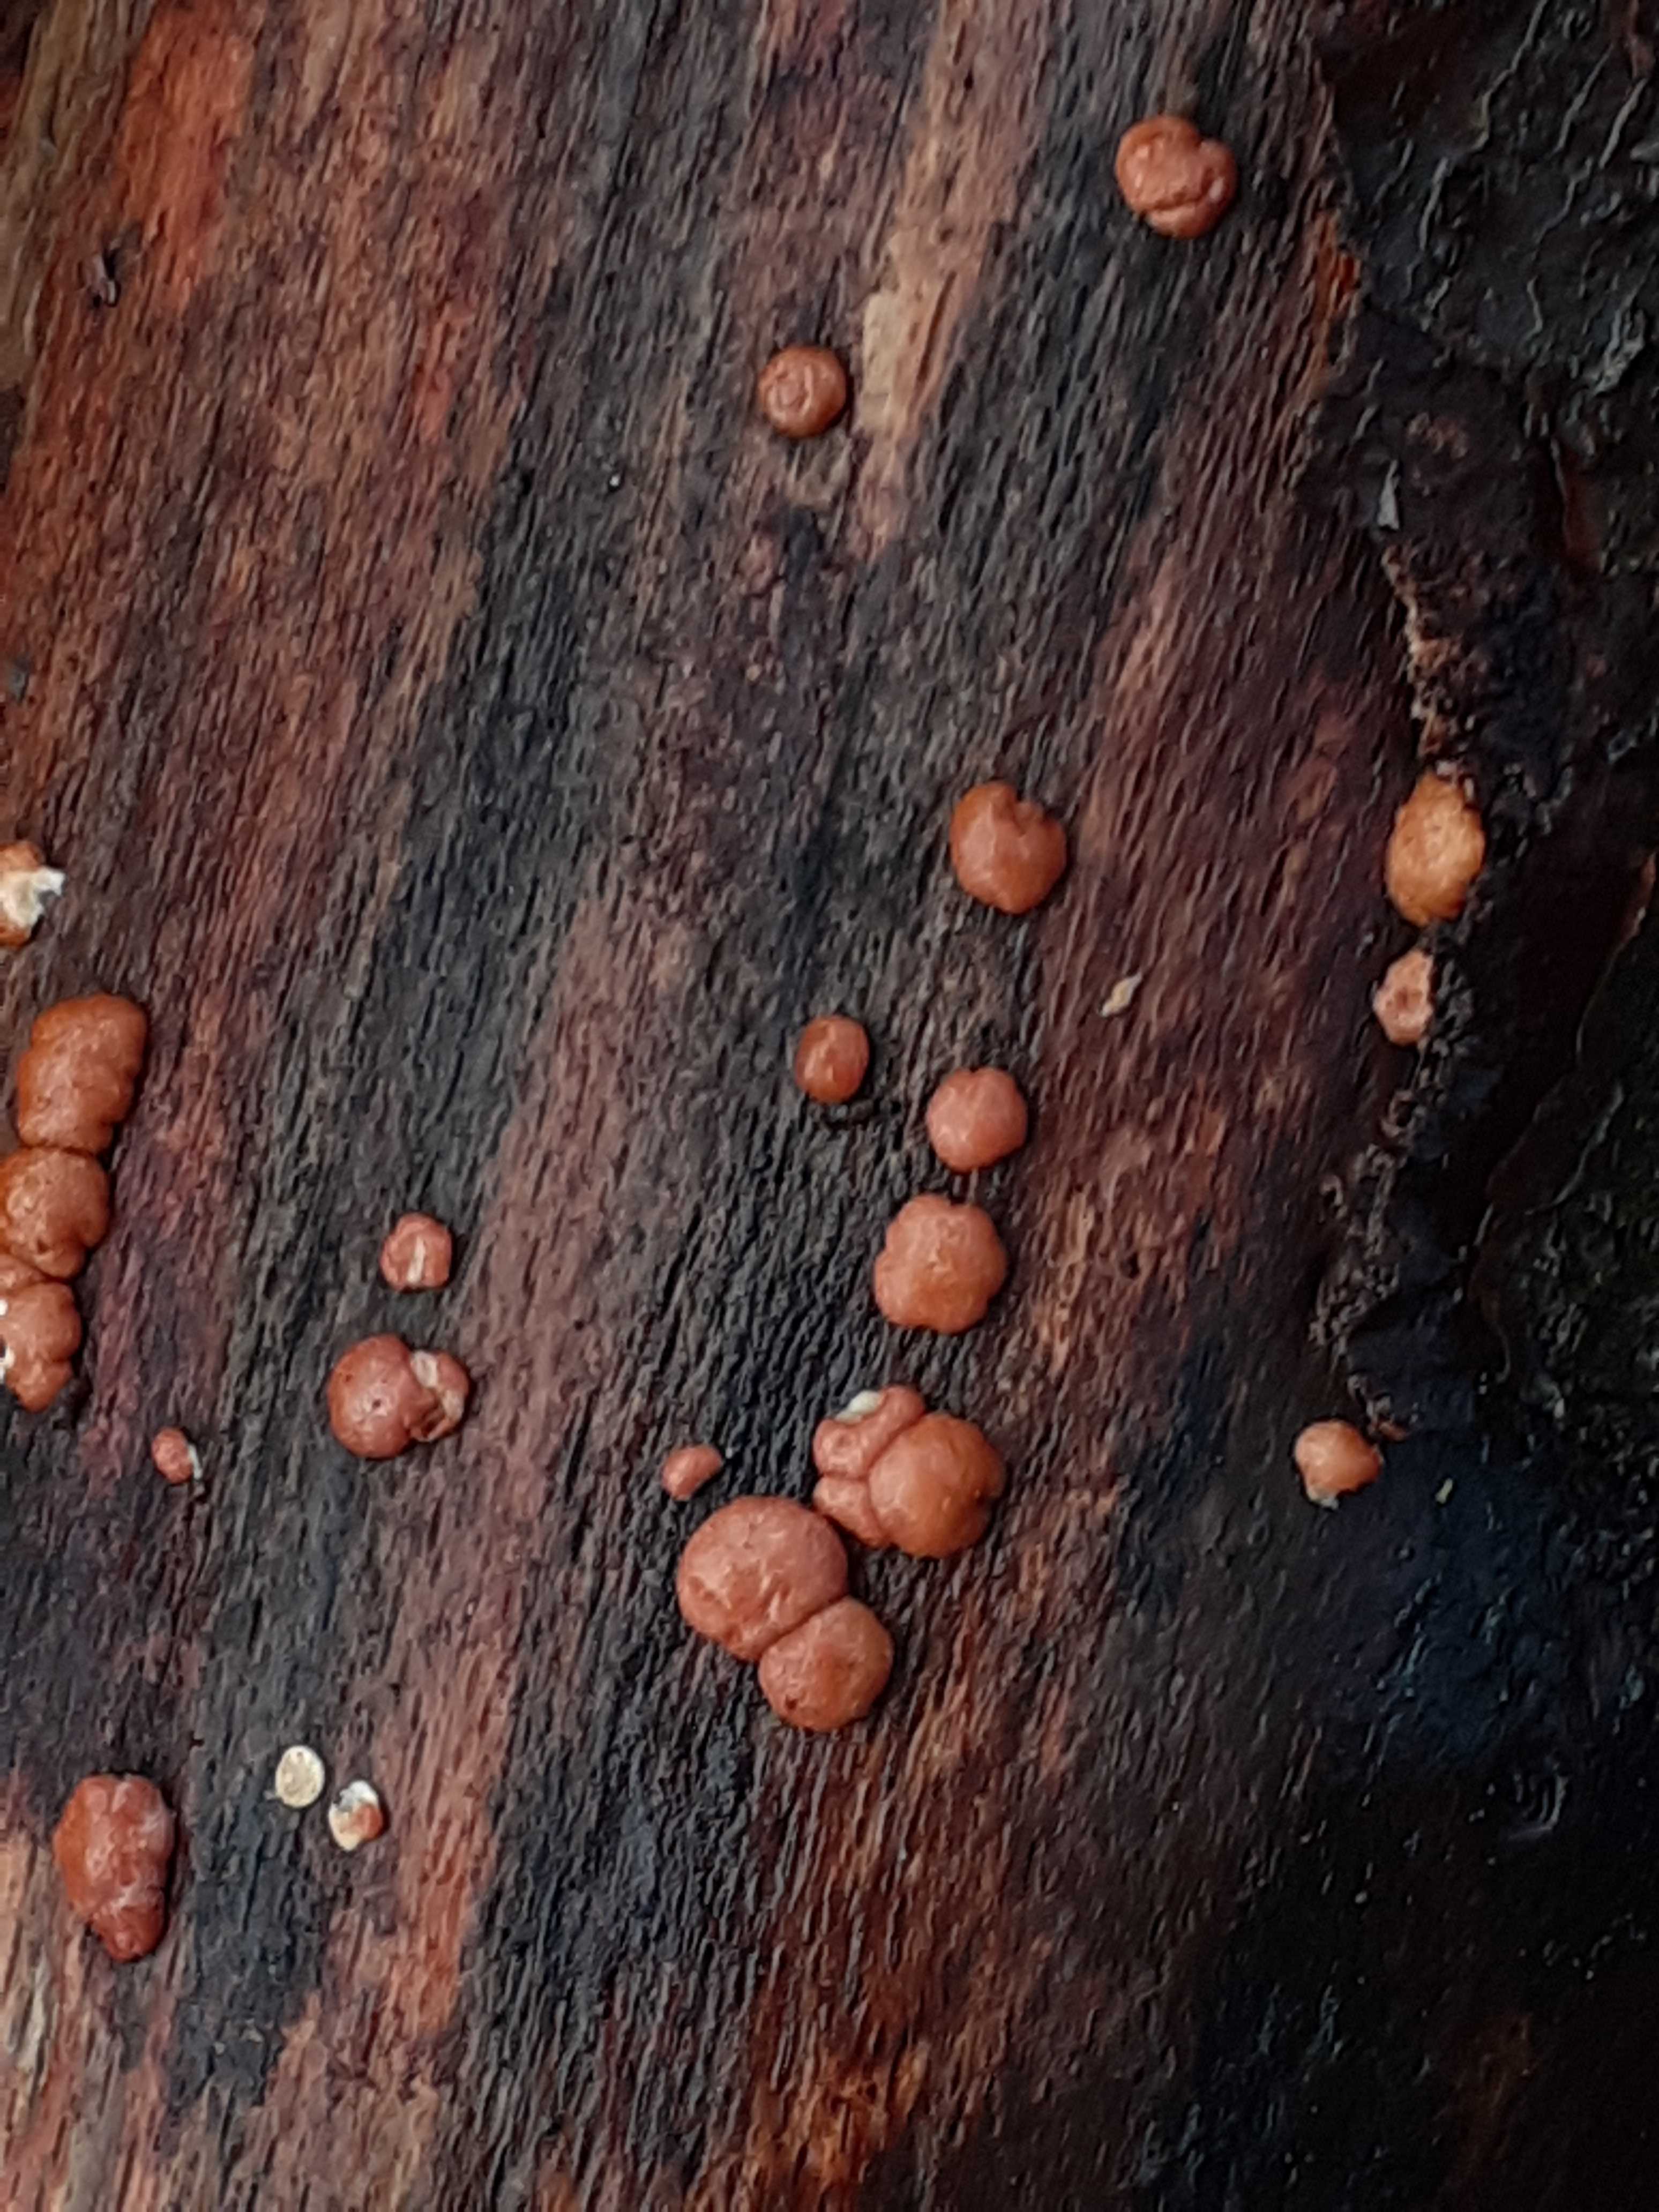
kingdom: Fungi
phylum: Ascomycota
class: Sordariomycetes
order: Hypocreales
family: Hypocreaceae
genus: Trichoderma
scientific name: Trichoderma europaeum
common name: rosabrun kødkerne
